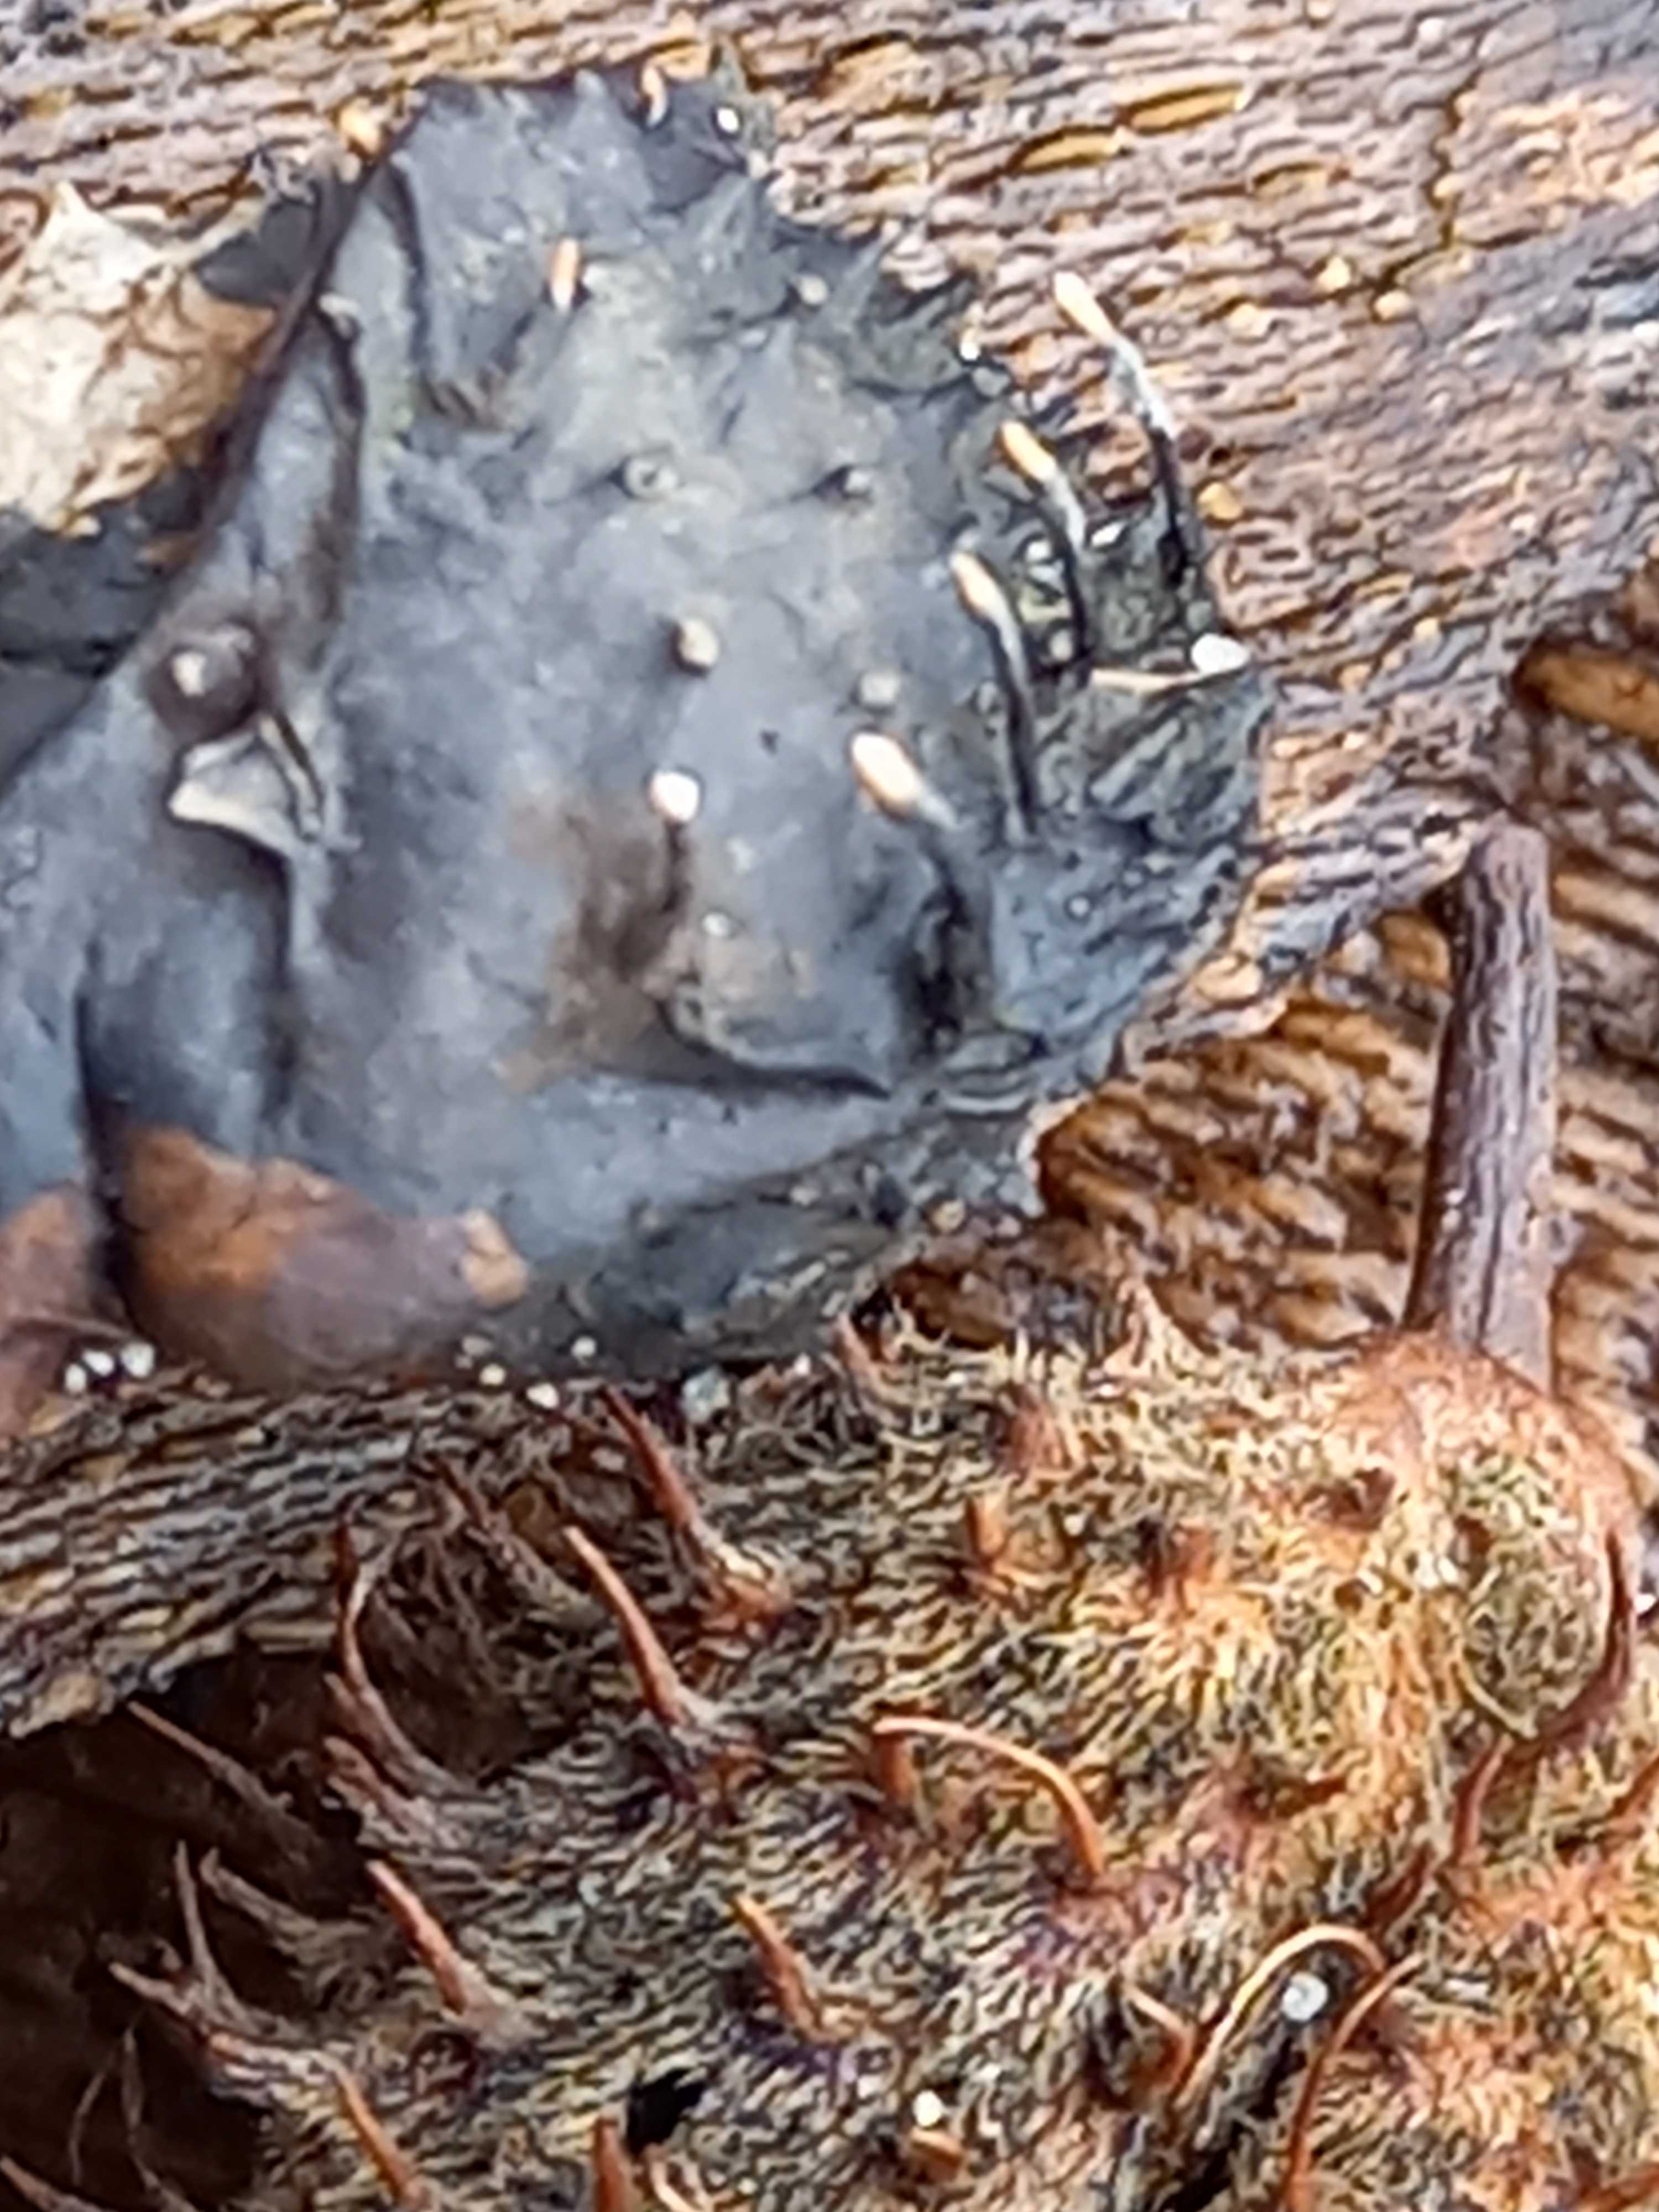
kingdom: Fungi
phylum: Ascomycota
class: Sordariomycetes
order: Xylariales
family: Xylariaceae
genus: Xylaria
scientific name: Xylaria carpophila
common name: bogskål-stødsvamp
